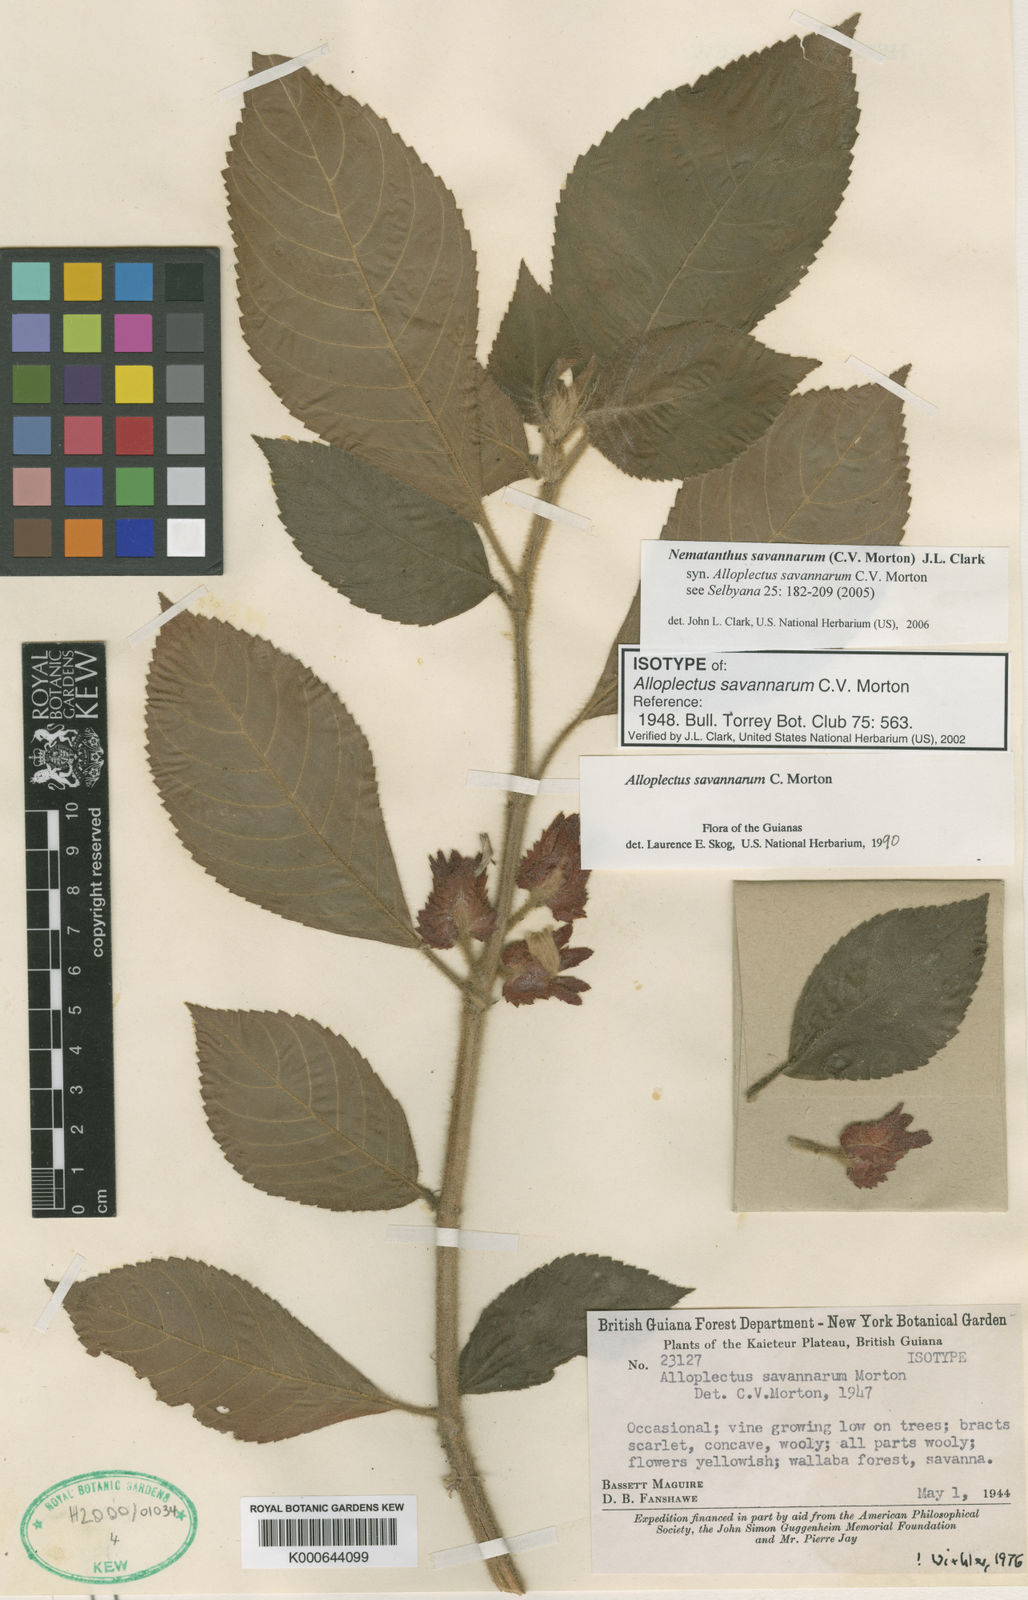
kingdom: Plantae
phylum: Tracheophyta
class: Magnoliopsida
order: Lamiales
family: Gesneriaceae
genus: Lesia
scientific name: Lesia savannarum
